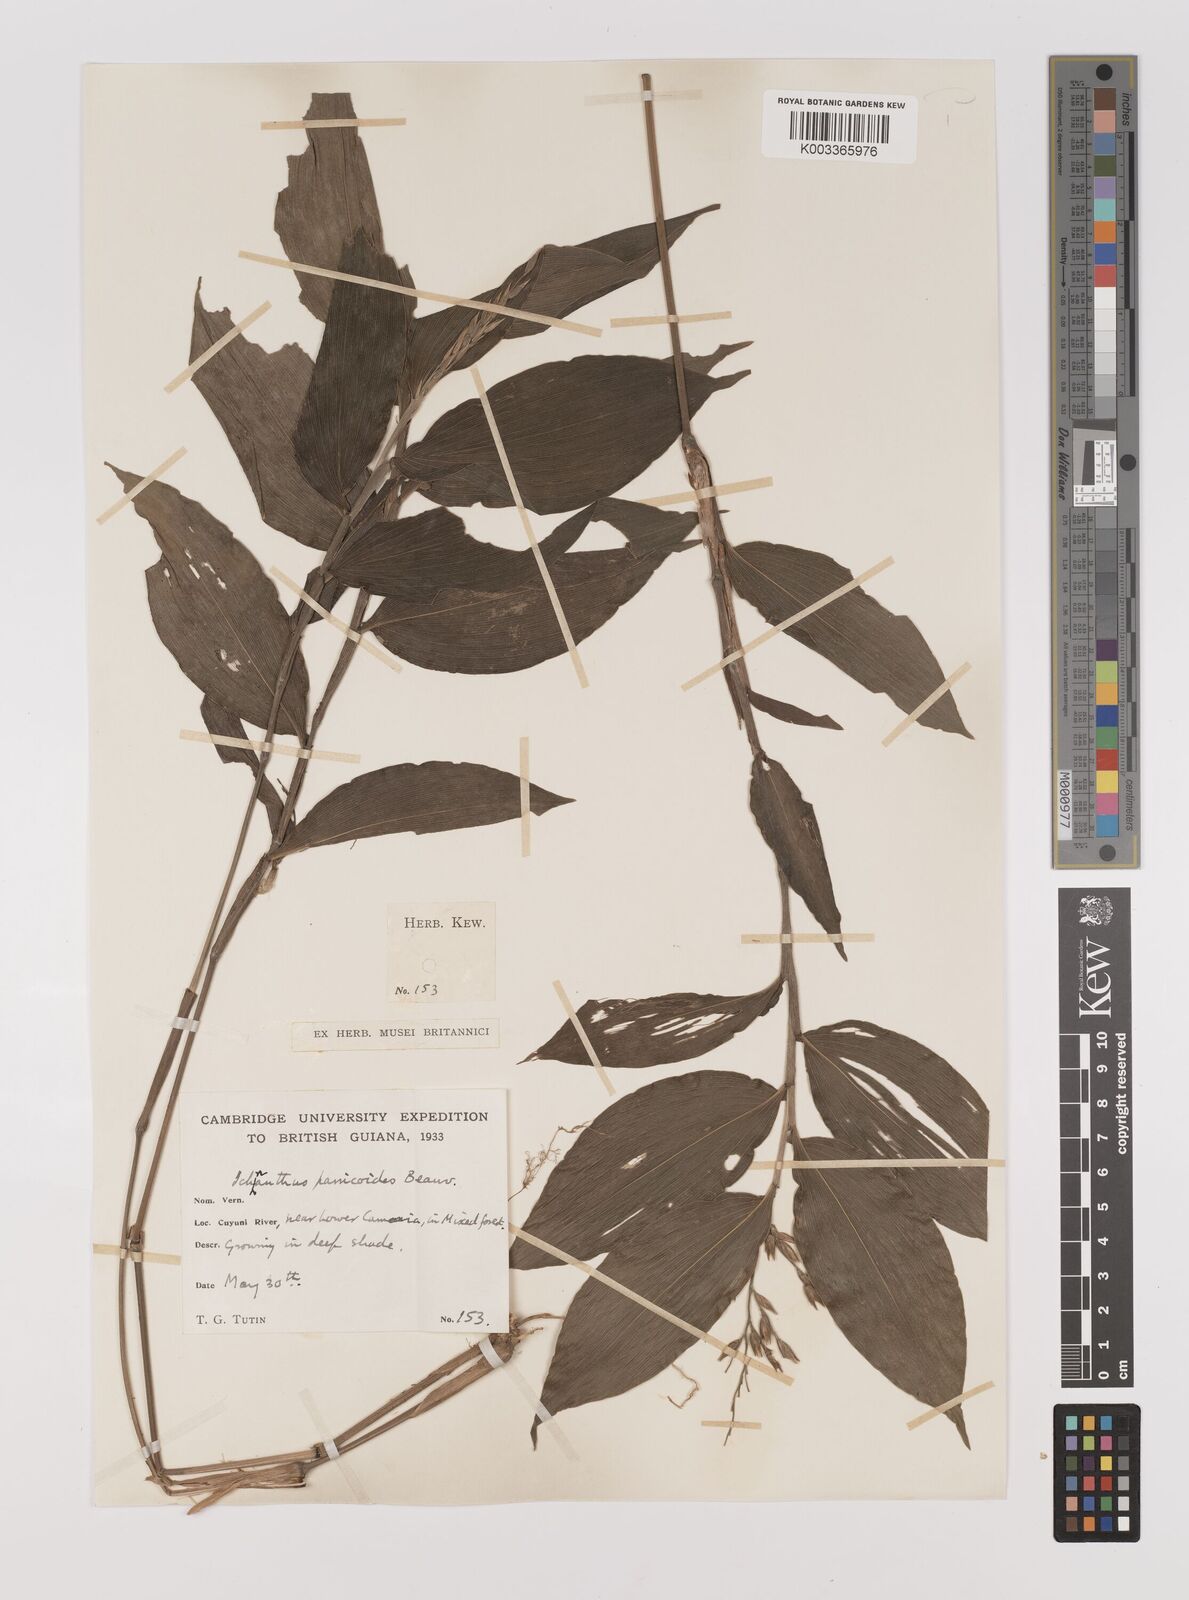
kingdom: Plantae
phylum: Tracheophyta
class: Liliopsida
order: Poales
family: Poaceae
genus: Ichnanthus
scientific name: Ichnanthus panicoides
